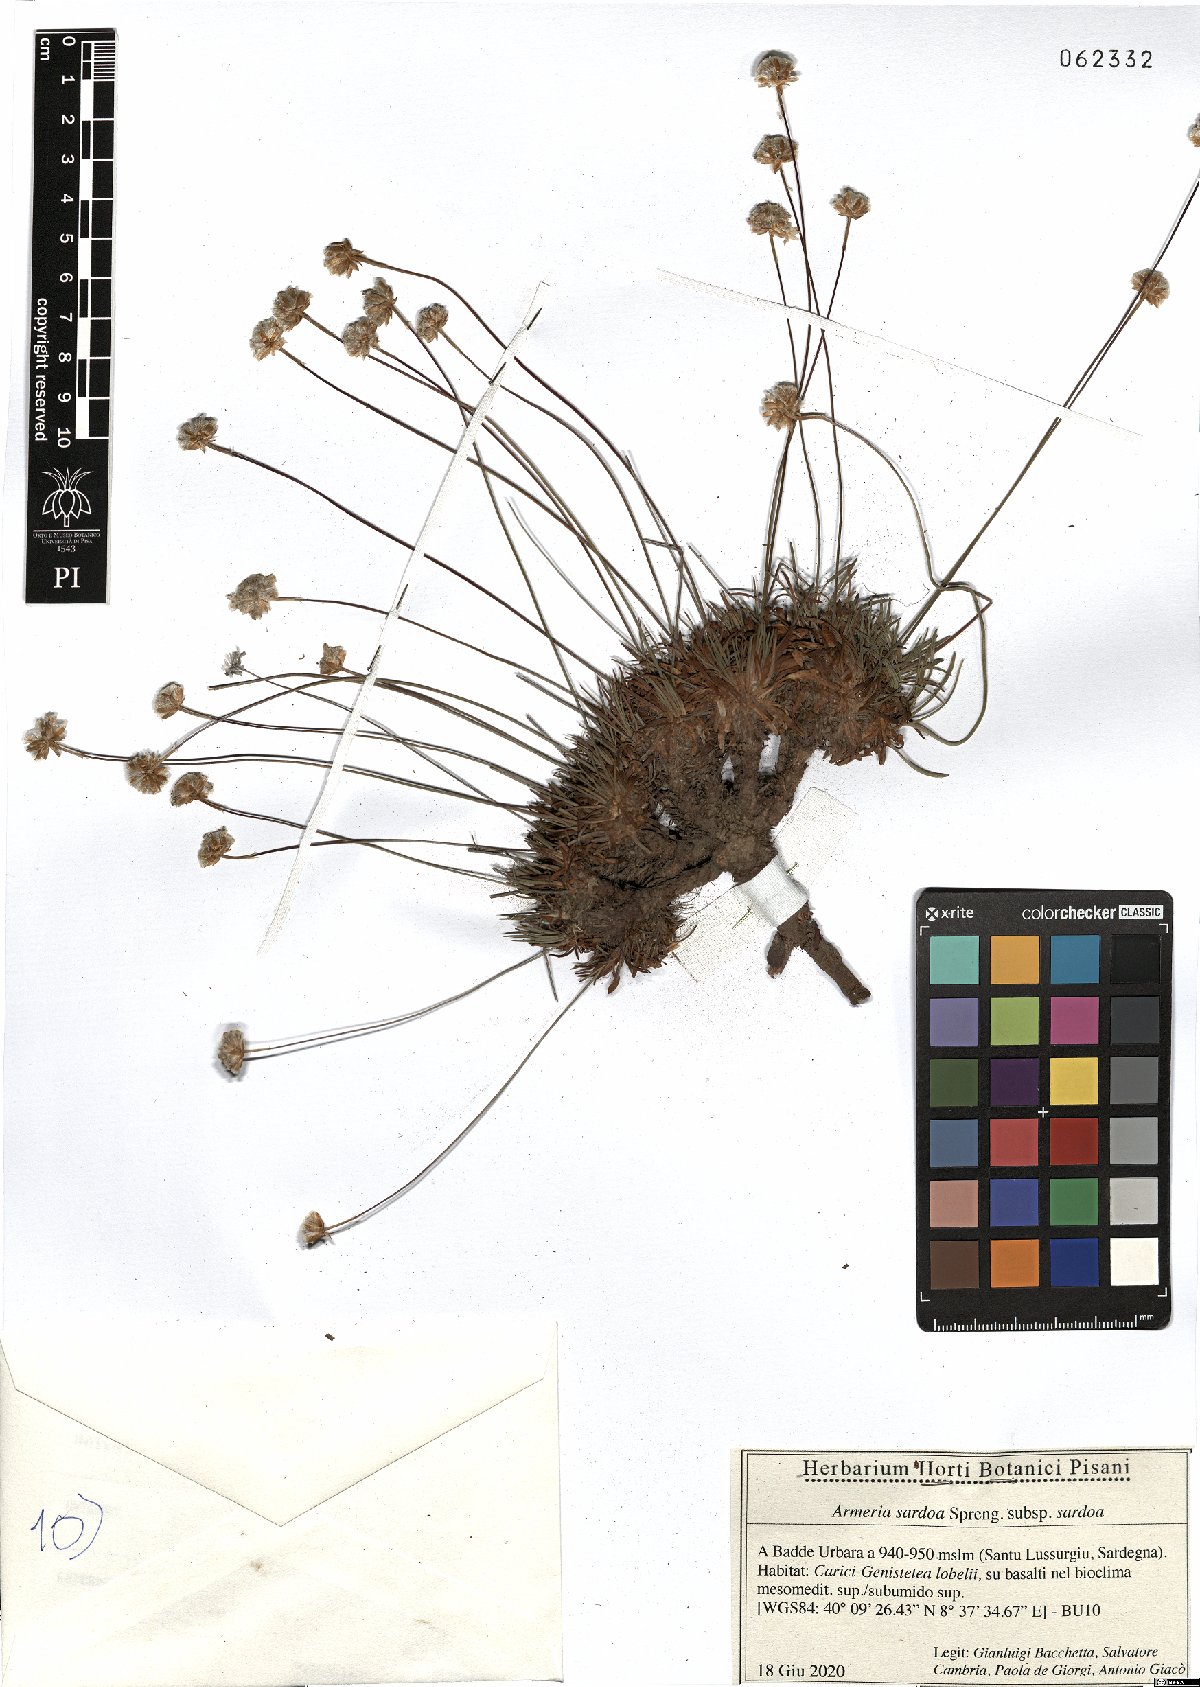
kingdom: Plantae
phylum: Tracheophyta
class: Magnoliopsida
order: Caryophyllales
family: Plumbaginaceae
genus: Armeria
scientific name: Armeria sardoa
